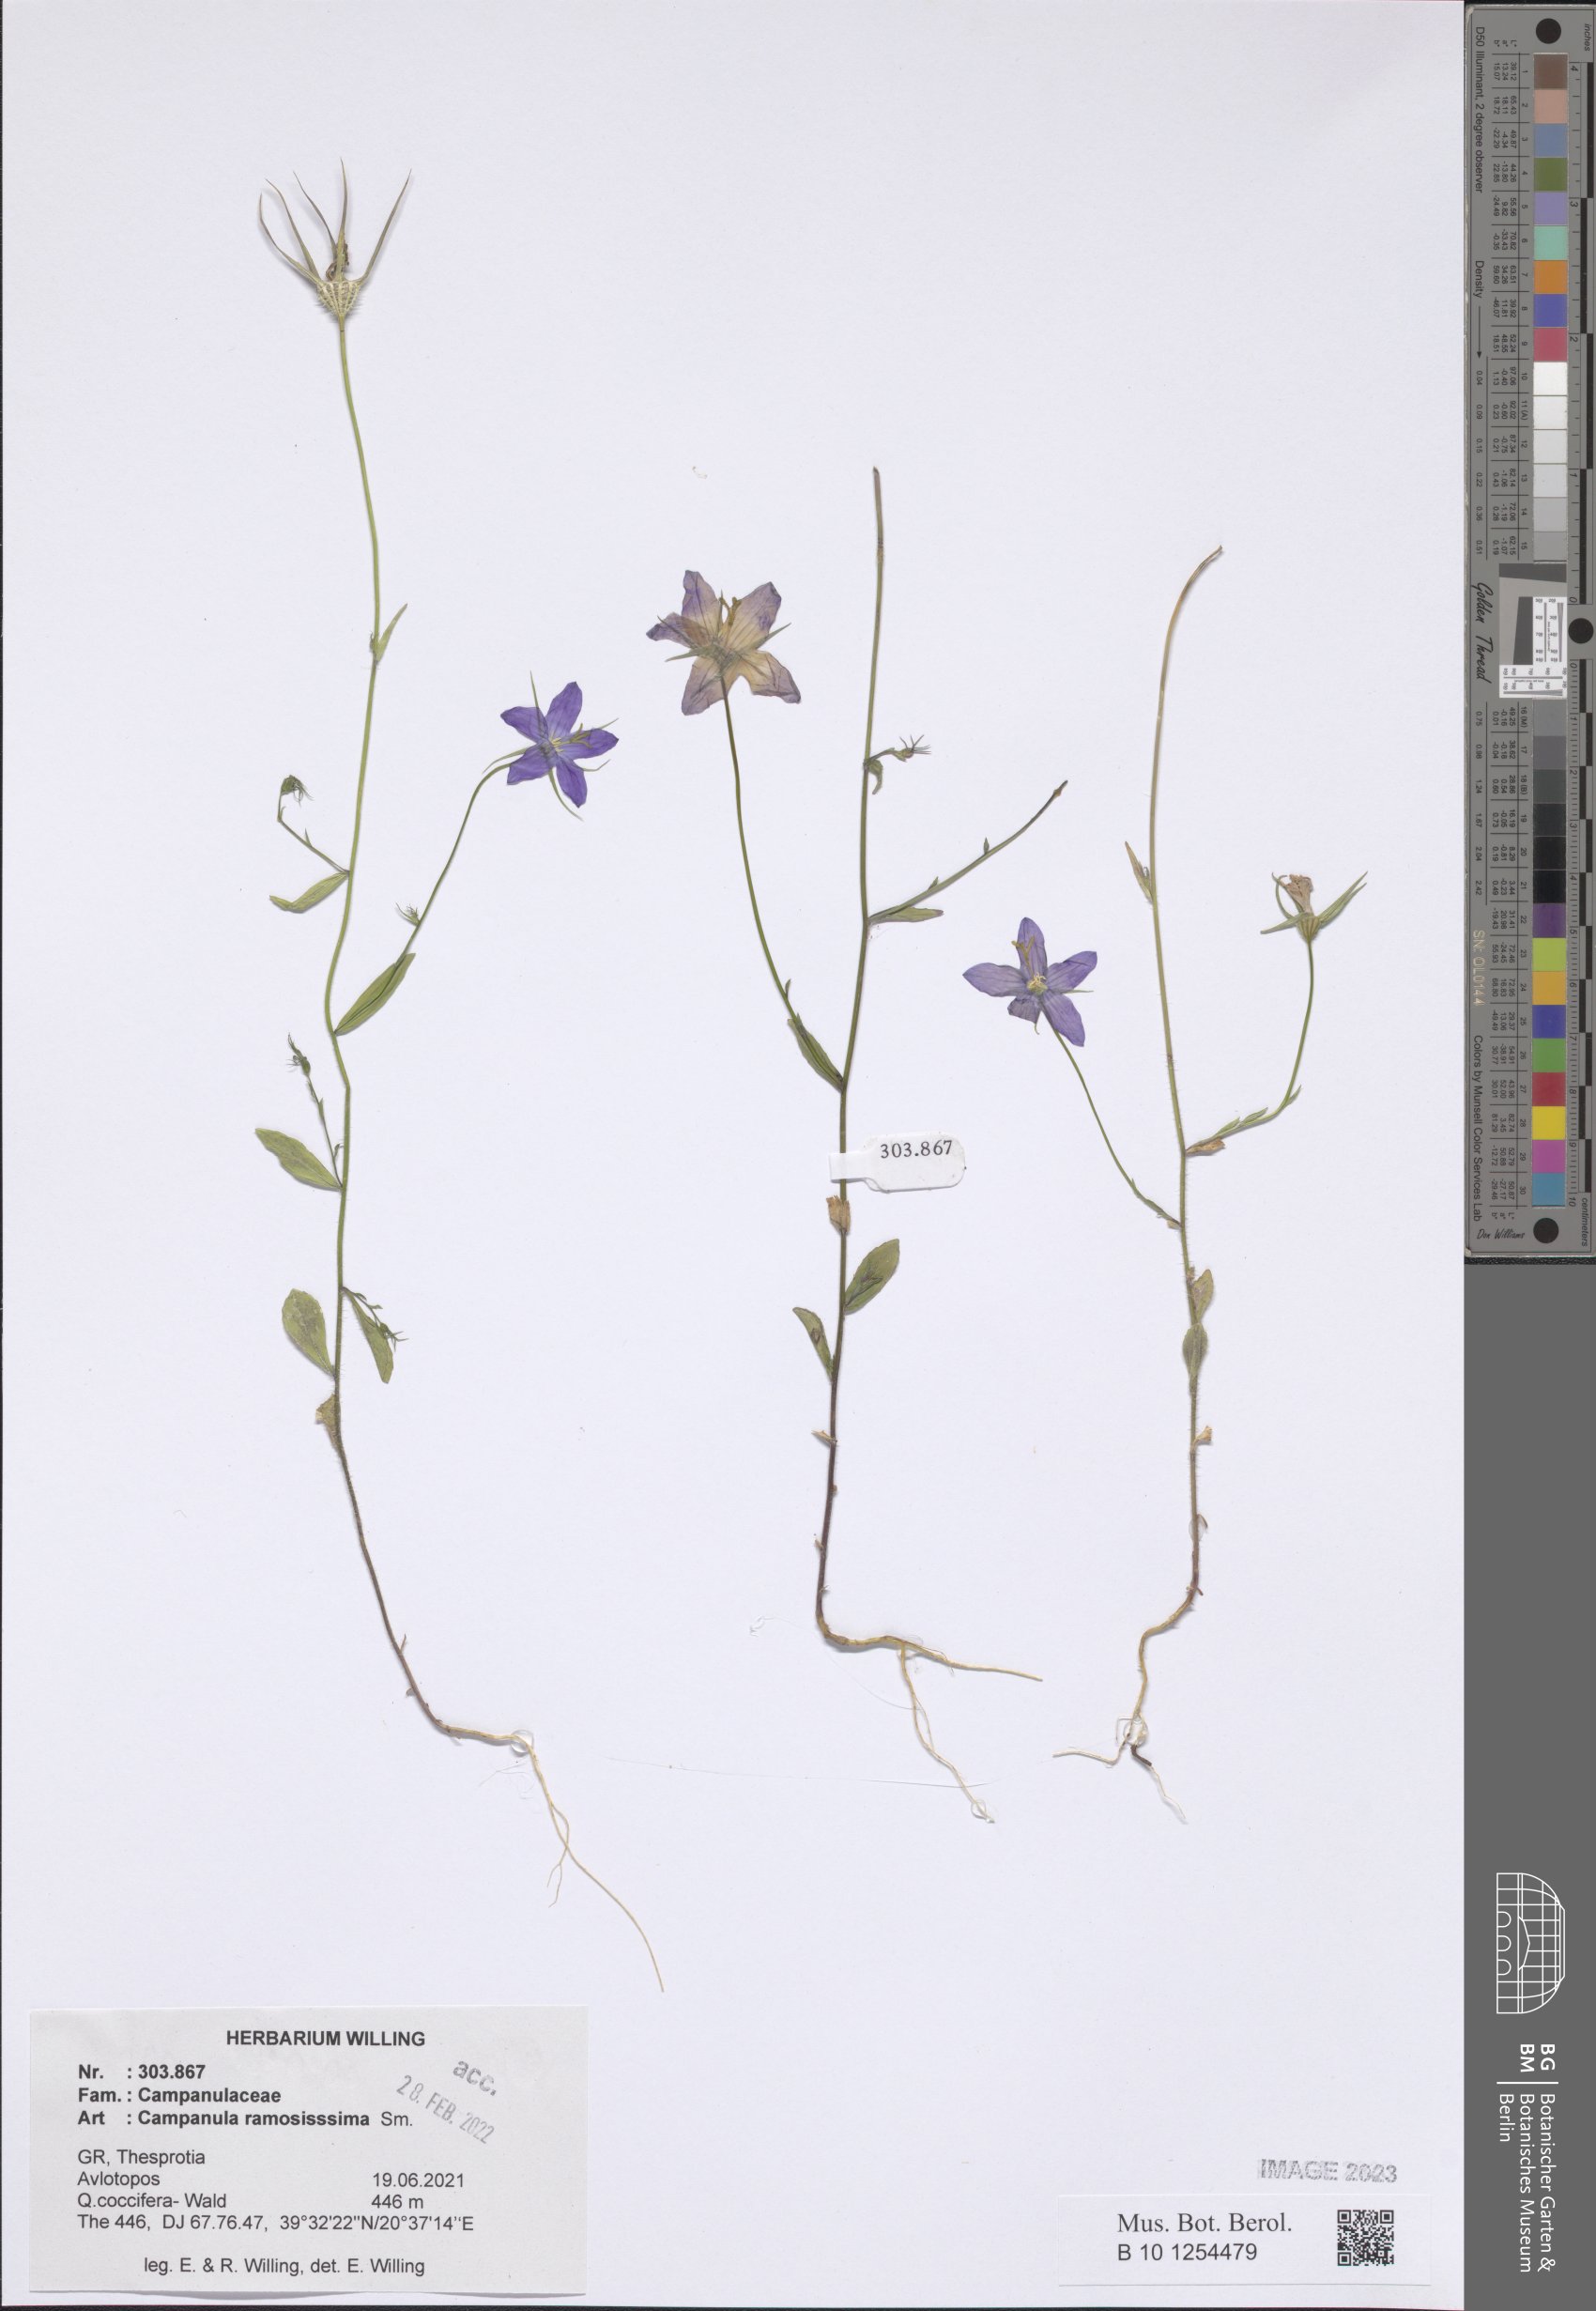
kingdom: Plantae
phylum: Tracheophyta
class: Magnoliopsida
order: Asterales
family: Campanulaceae
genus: Campanula
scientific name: Campanula ramosissima
